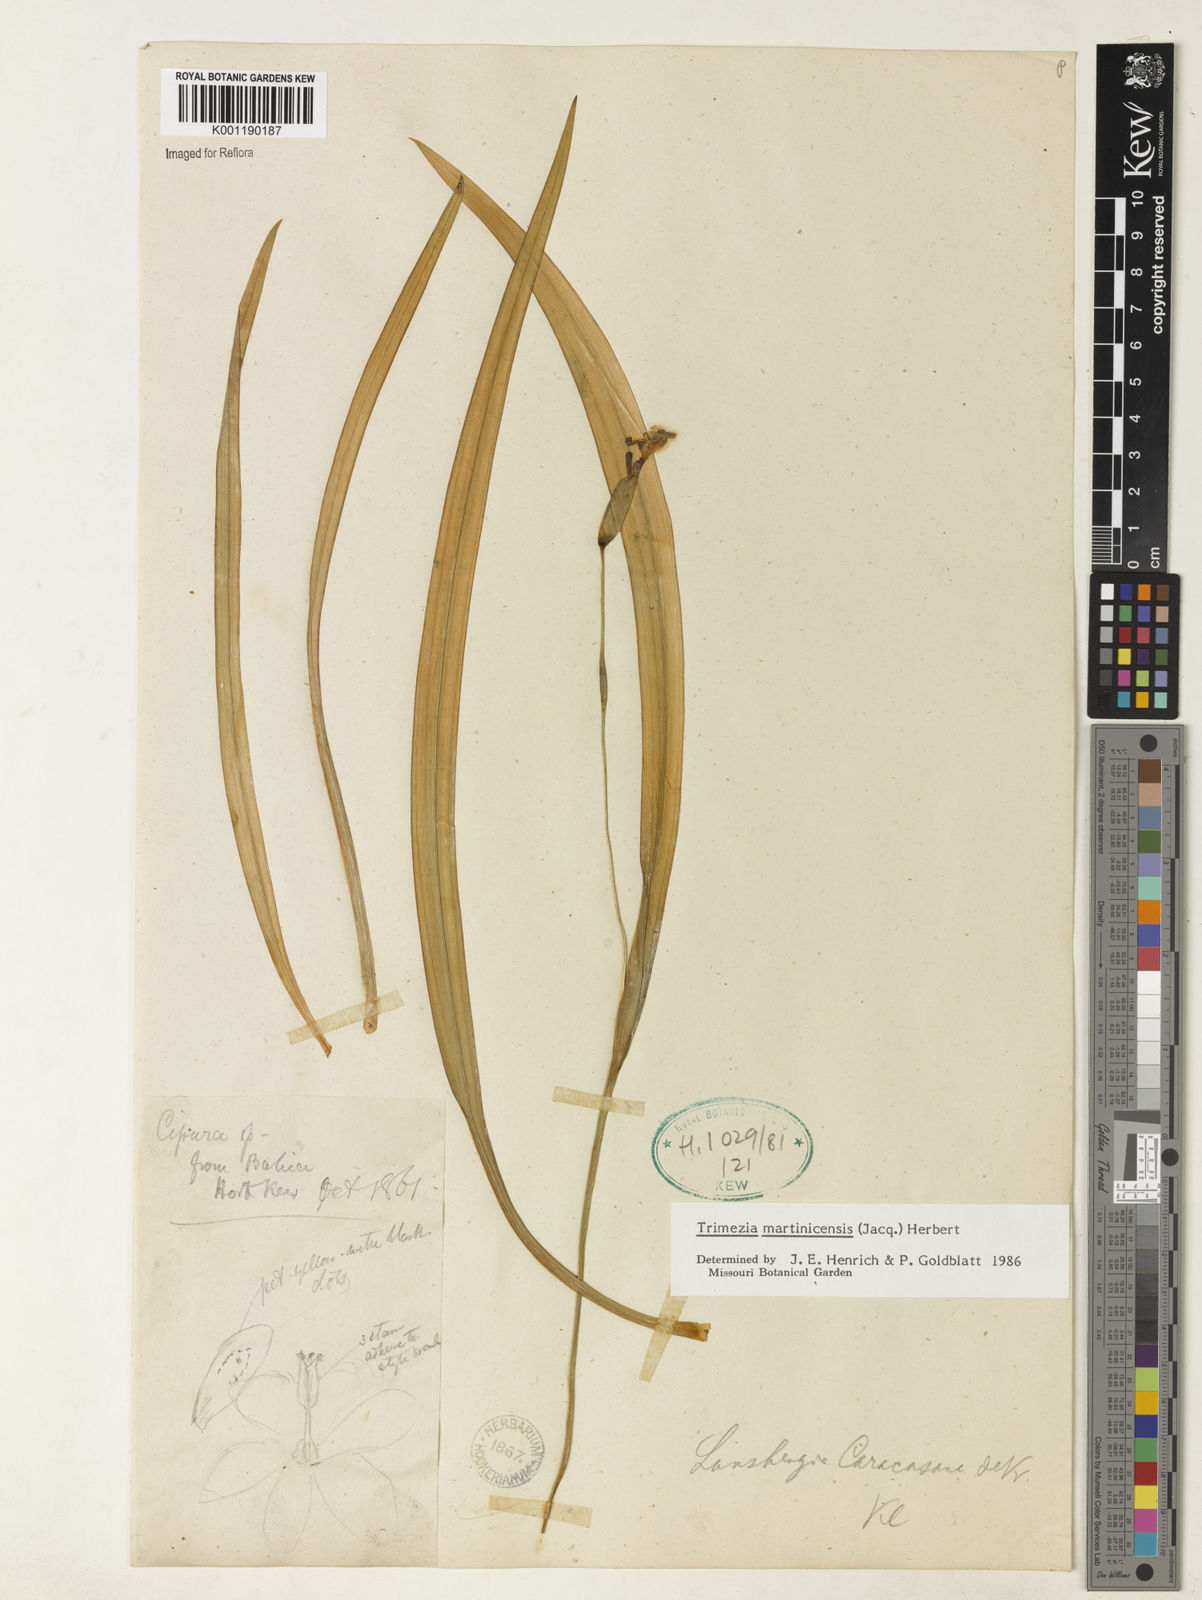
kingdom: Plantae
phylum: Tracheophyta
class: Liliopsida
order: Asparagales
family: Iridaceae
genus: Trimezia
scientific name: Trimezia martinicensis
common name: Martinique trimezia
